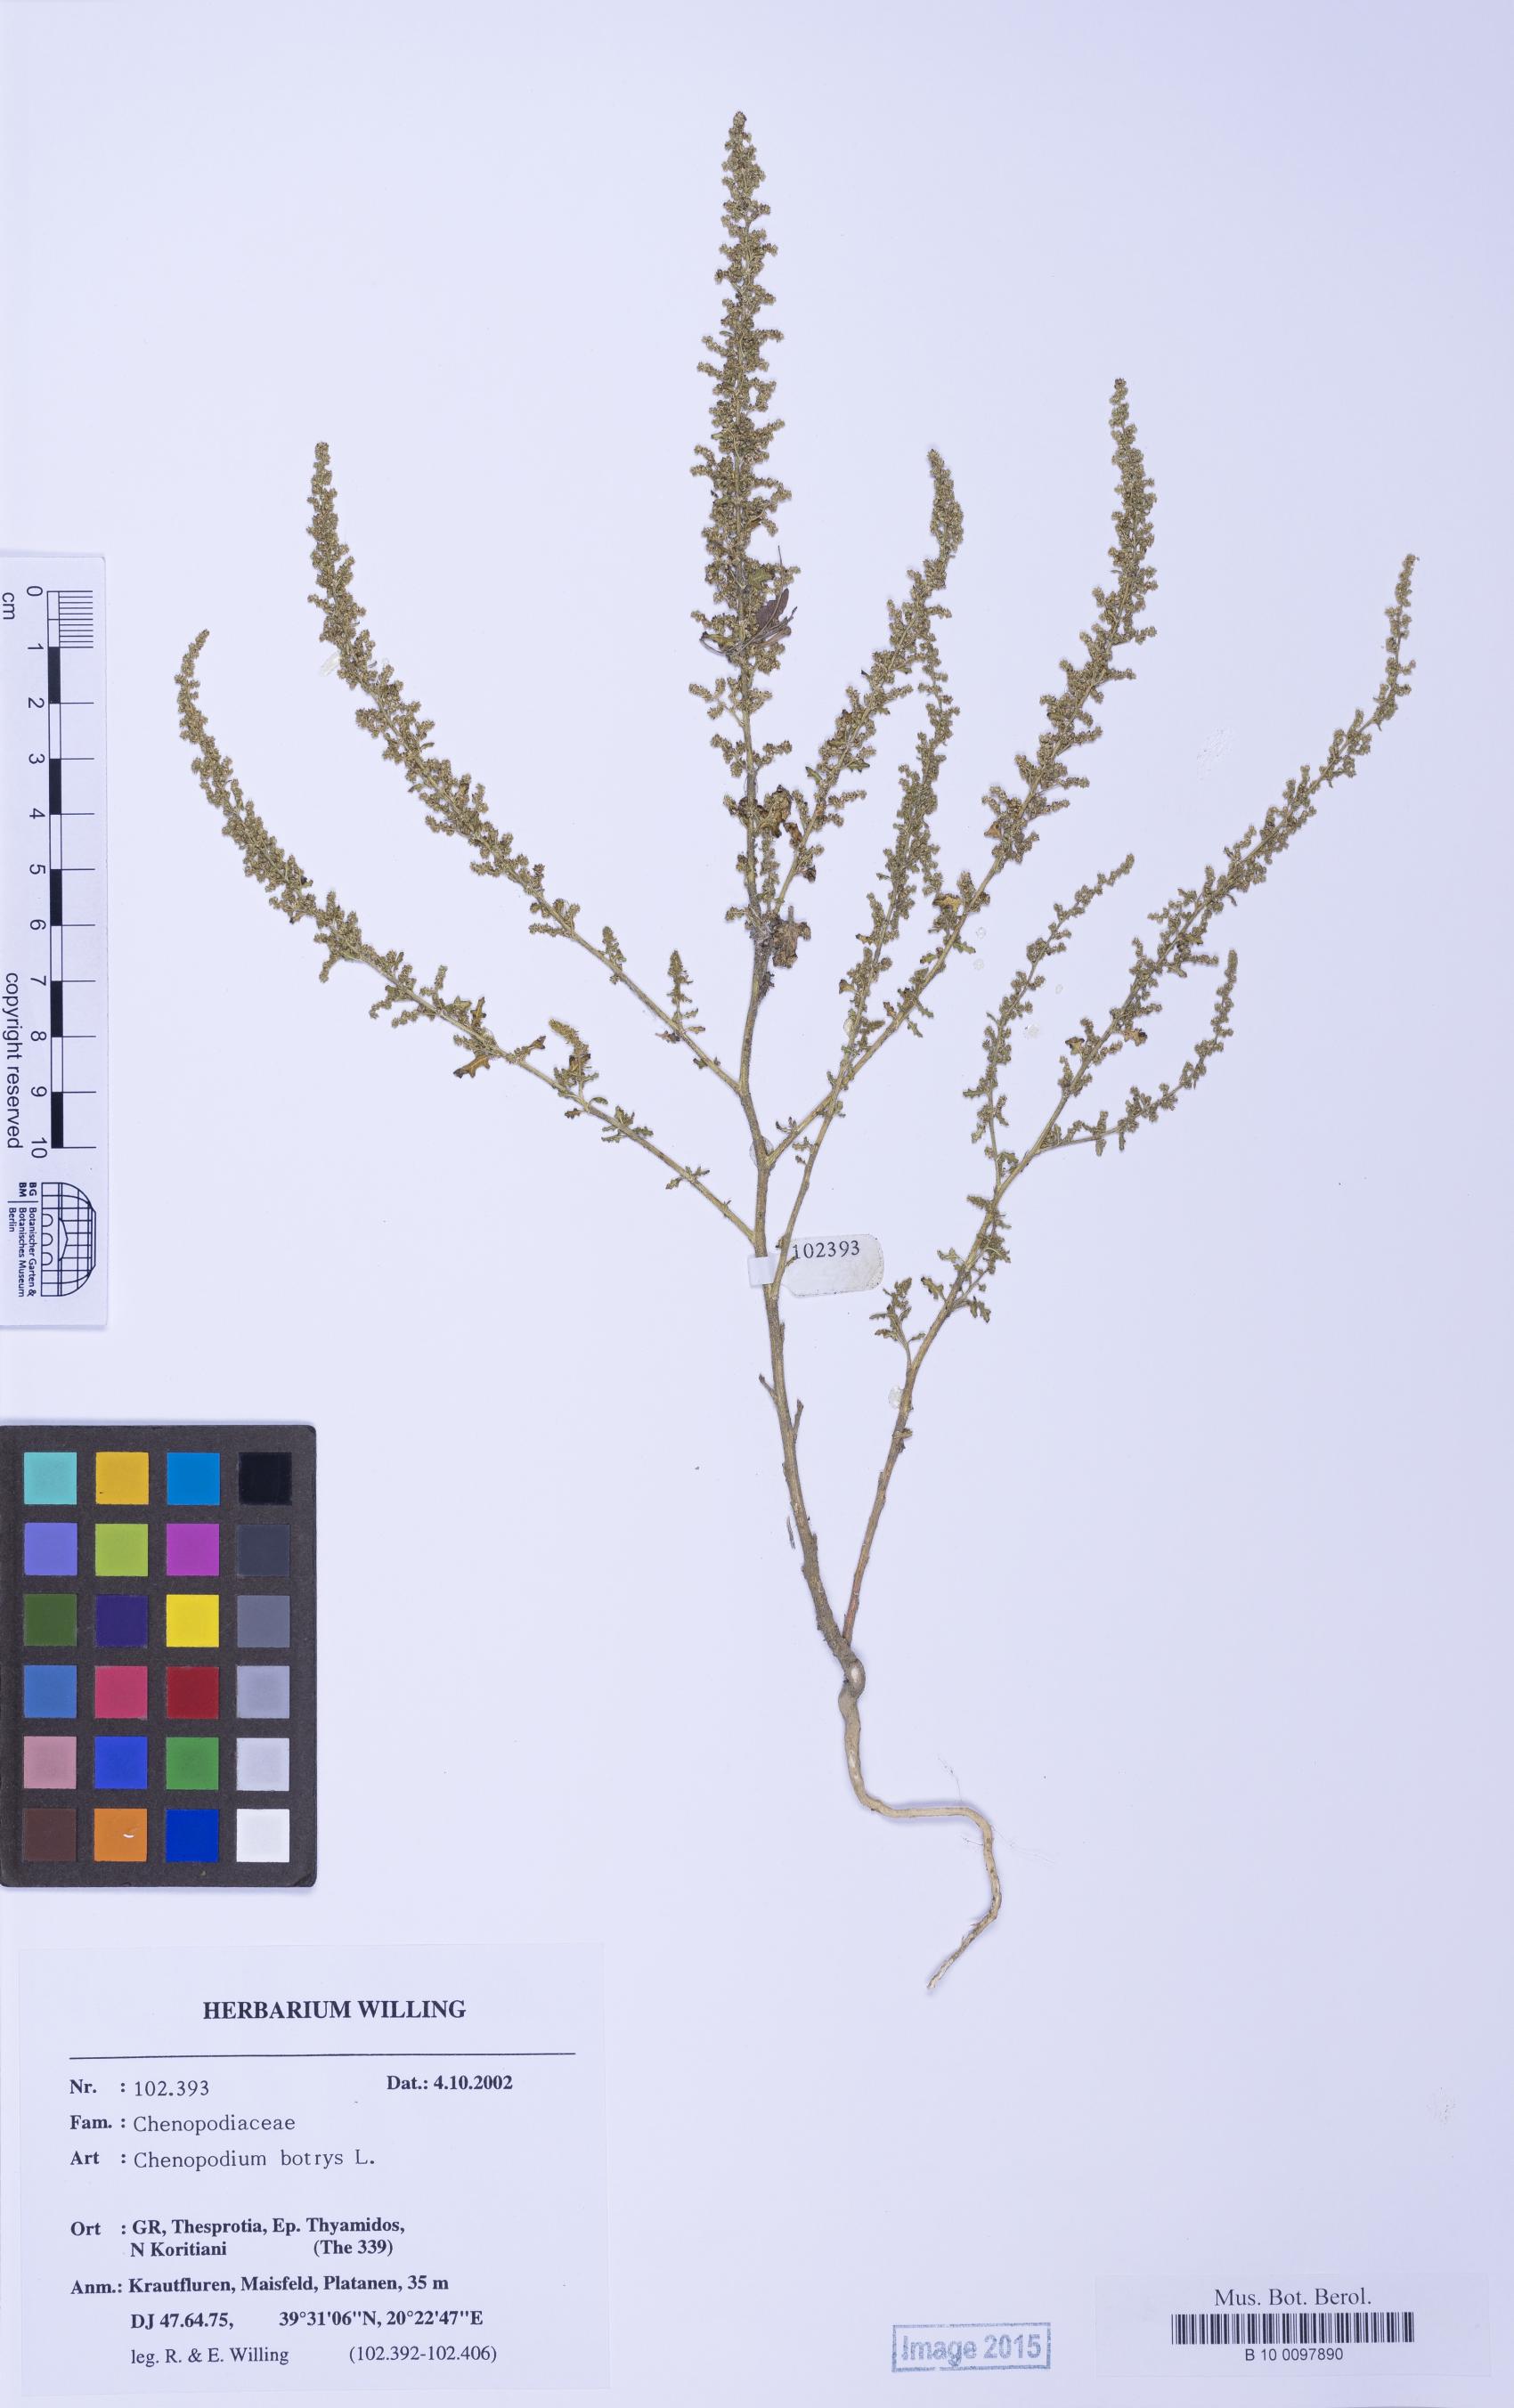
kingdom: Plantae
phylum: Tracheophyta
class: Magnoliopsida
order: Caryophyllales
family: Amaranthaceae
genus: Dysphania
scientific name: Dysphania botrys
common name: Feather-geranium
